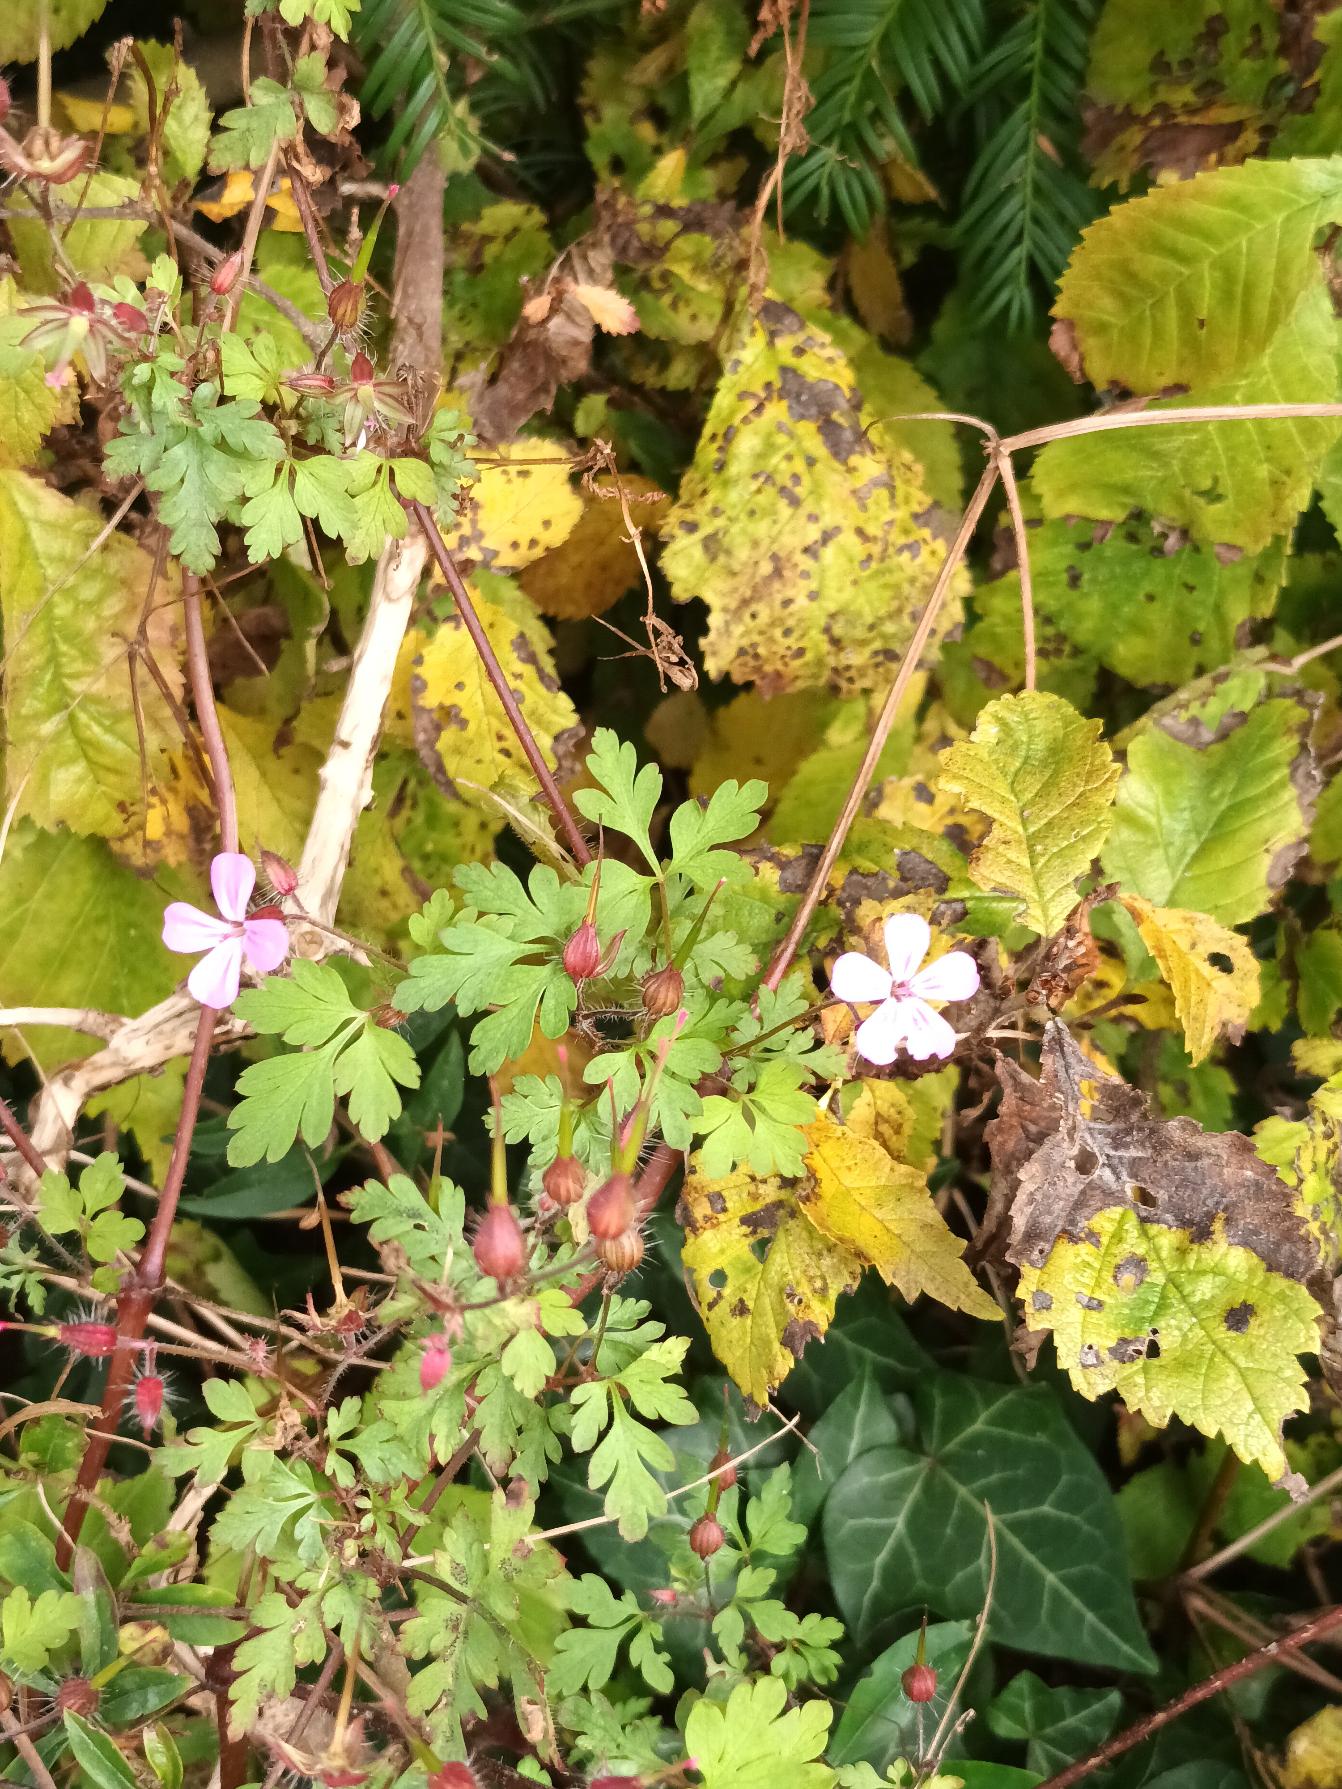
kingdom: Plantae
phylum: Tracheophyta
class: Magnoliopsida
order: Geraniales
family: Geraniaceae
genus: Geranium
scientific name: Geranium robertianum
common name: Stinkende storkenæb
